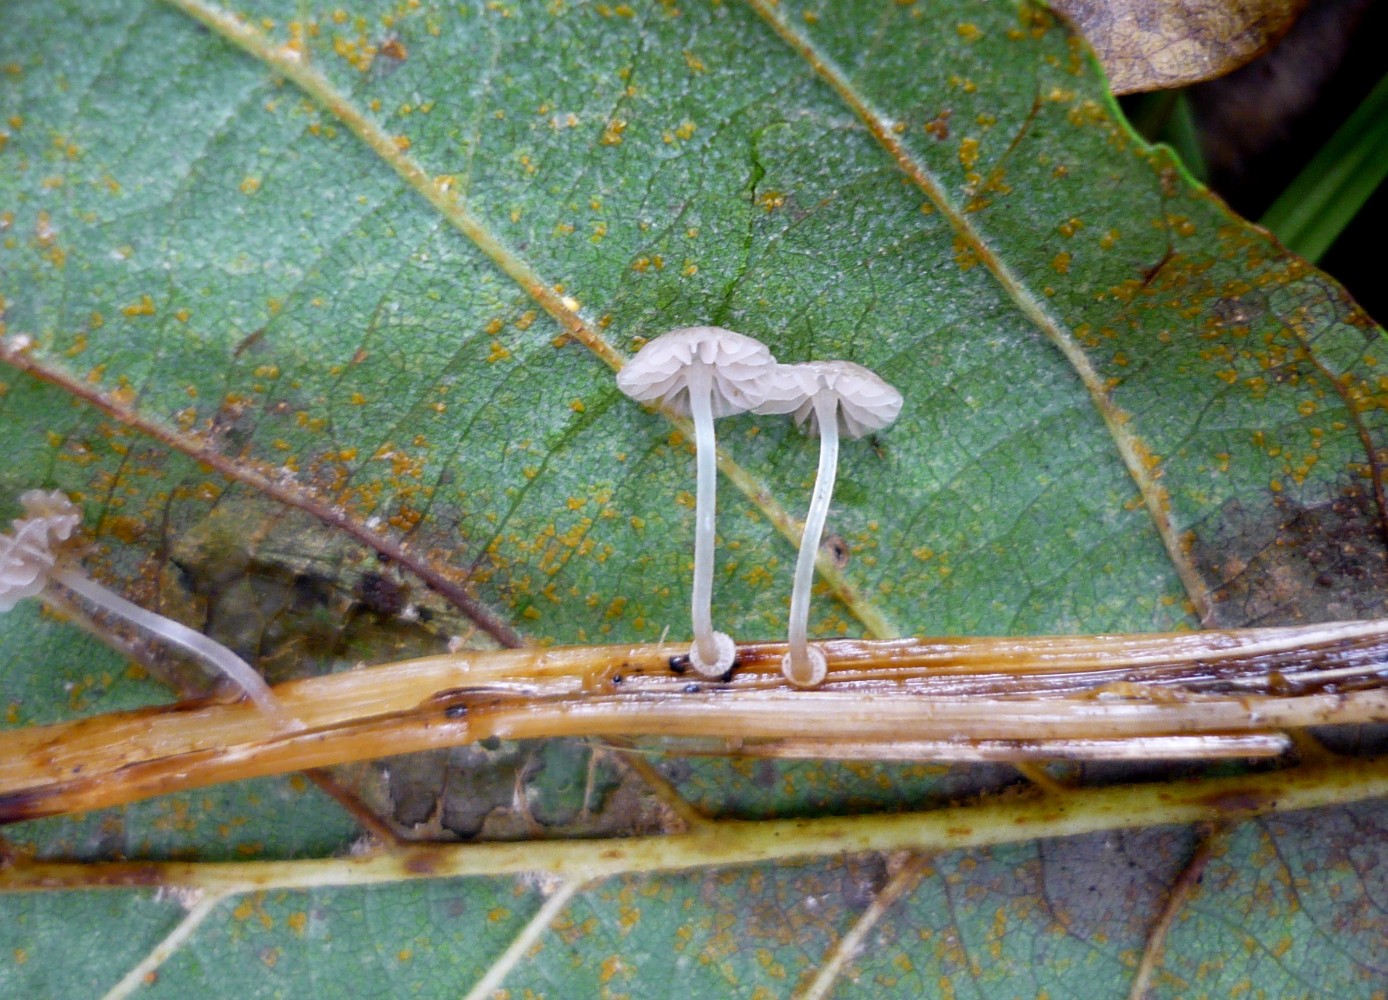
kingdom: Fungi
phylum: Basidiomycota
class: Agaricomycetes
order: Agaricales
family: Mycenaceae
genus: Mycena
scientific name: Mycena stylobates
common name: fureskivet huesvamp
